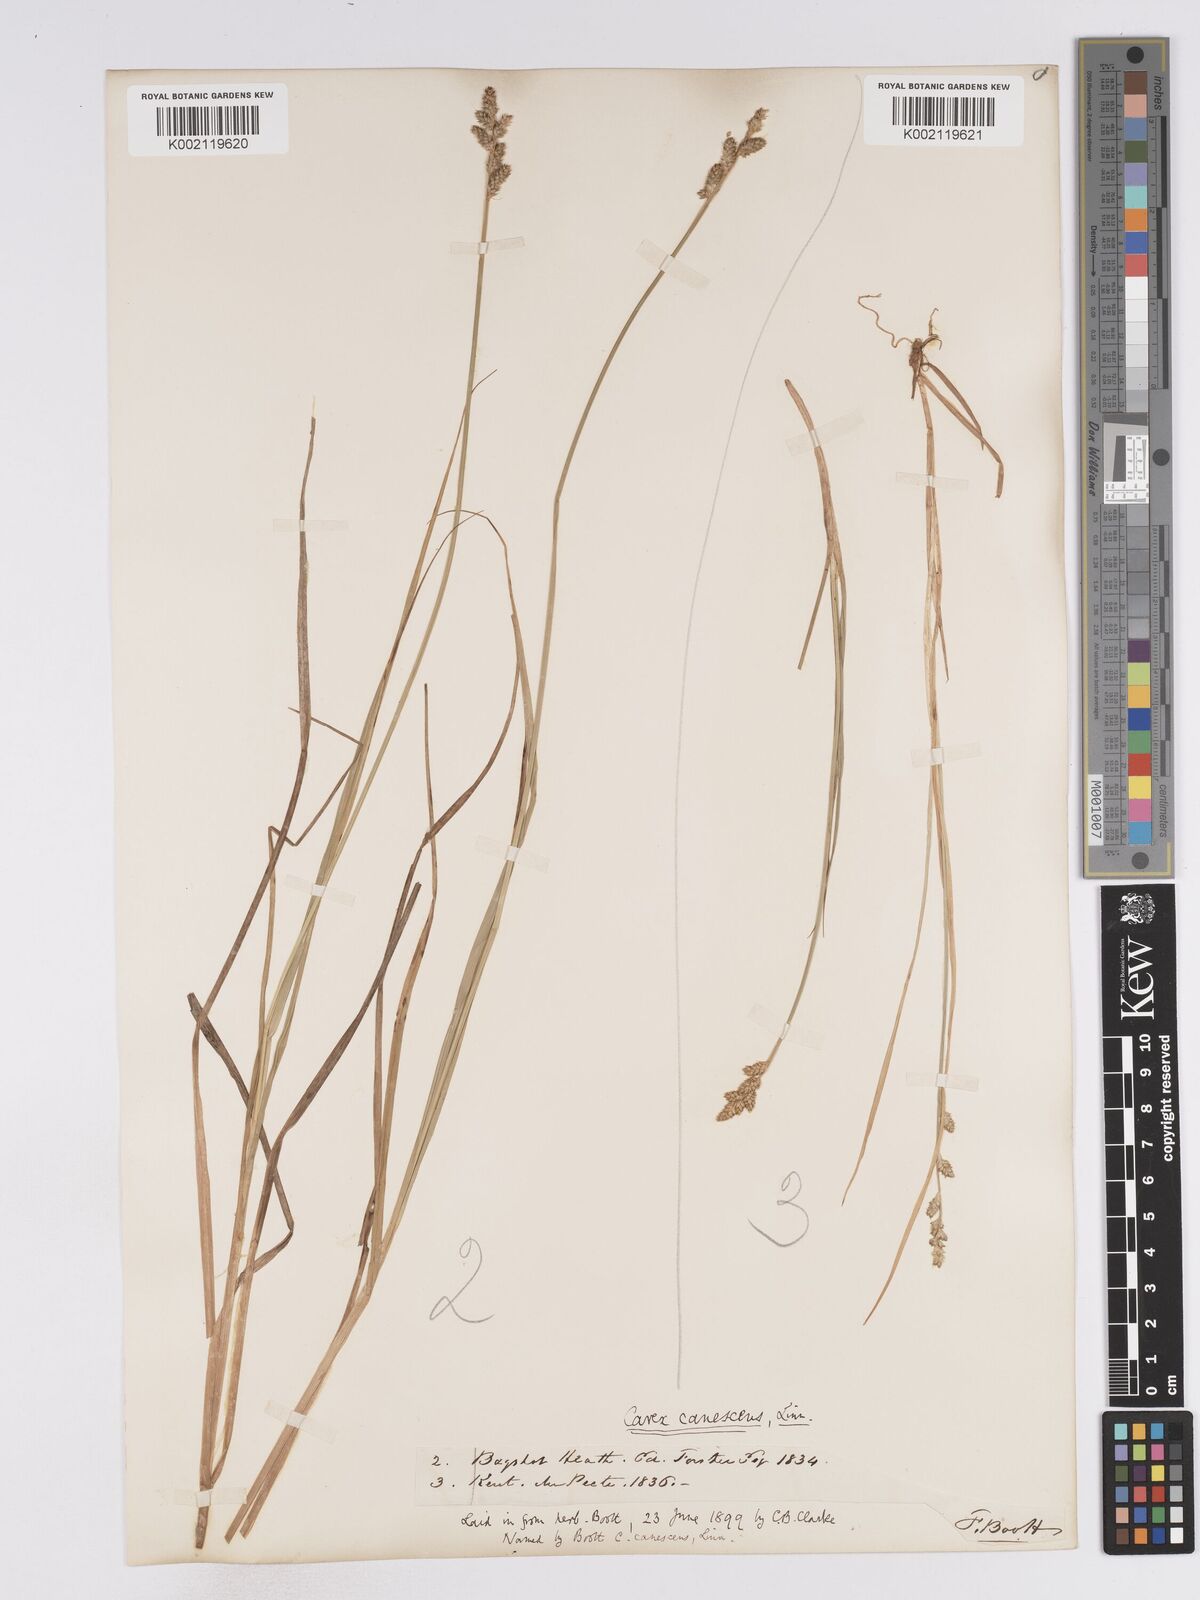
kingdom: Plantae
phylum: Tracheophyta
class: Liliopsida
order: Poales
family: Cyperaceae
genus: Carex
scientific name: Carex curta
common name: White sedge
